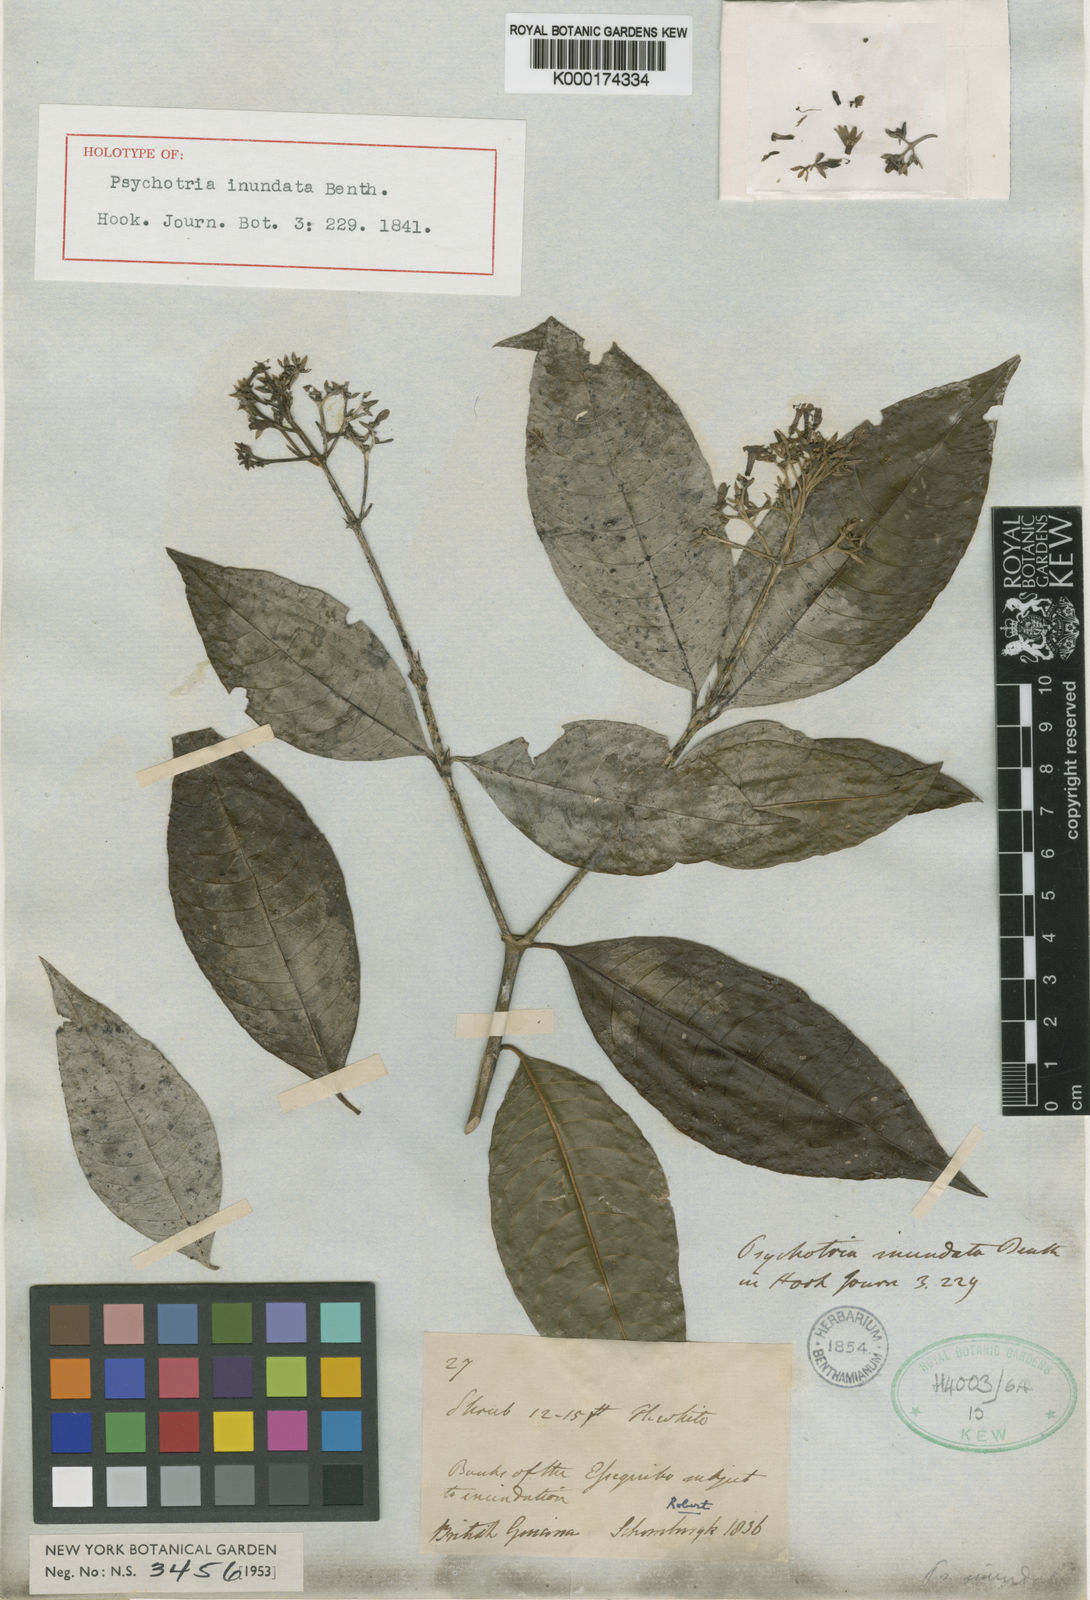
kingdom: Plantae
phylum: Tracheophyta
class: Magnoliopsida
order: Gentianales
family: Rubiaceae
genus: Palicourea
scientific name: Palicourea violacea
